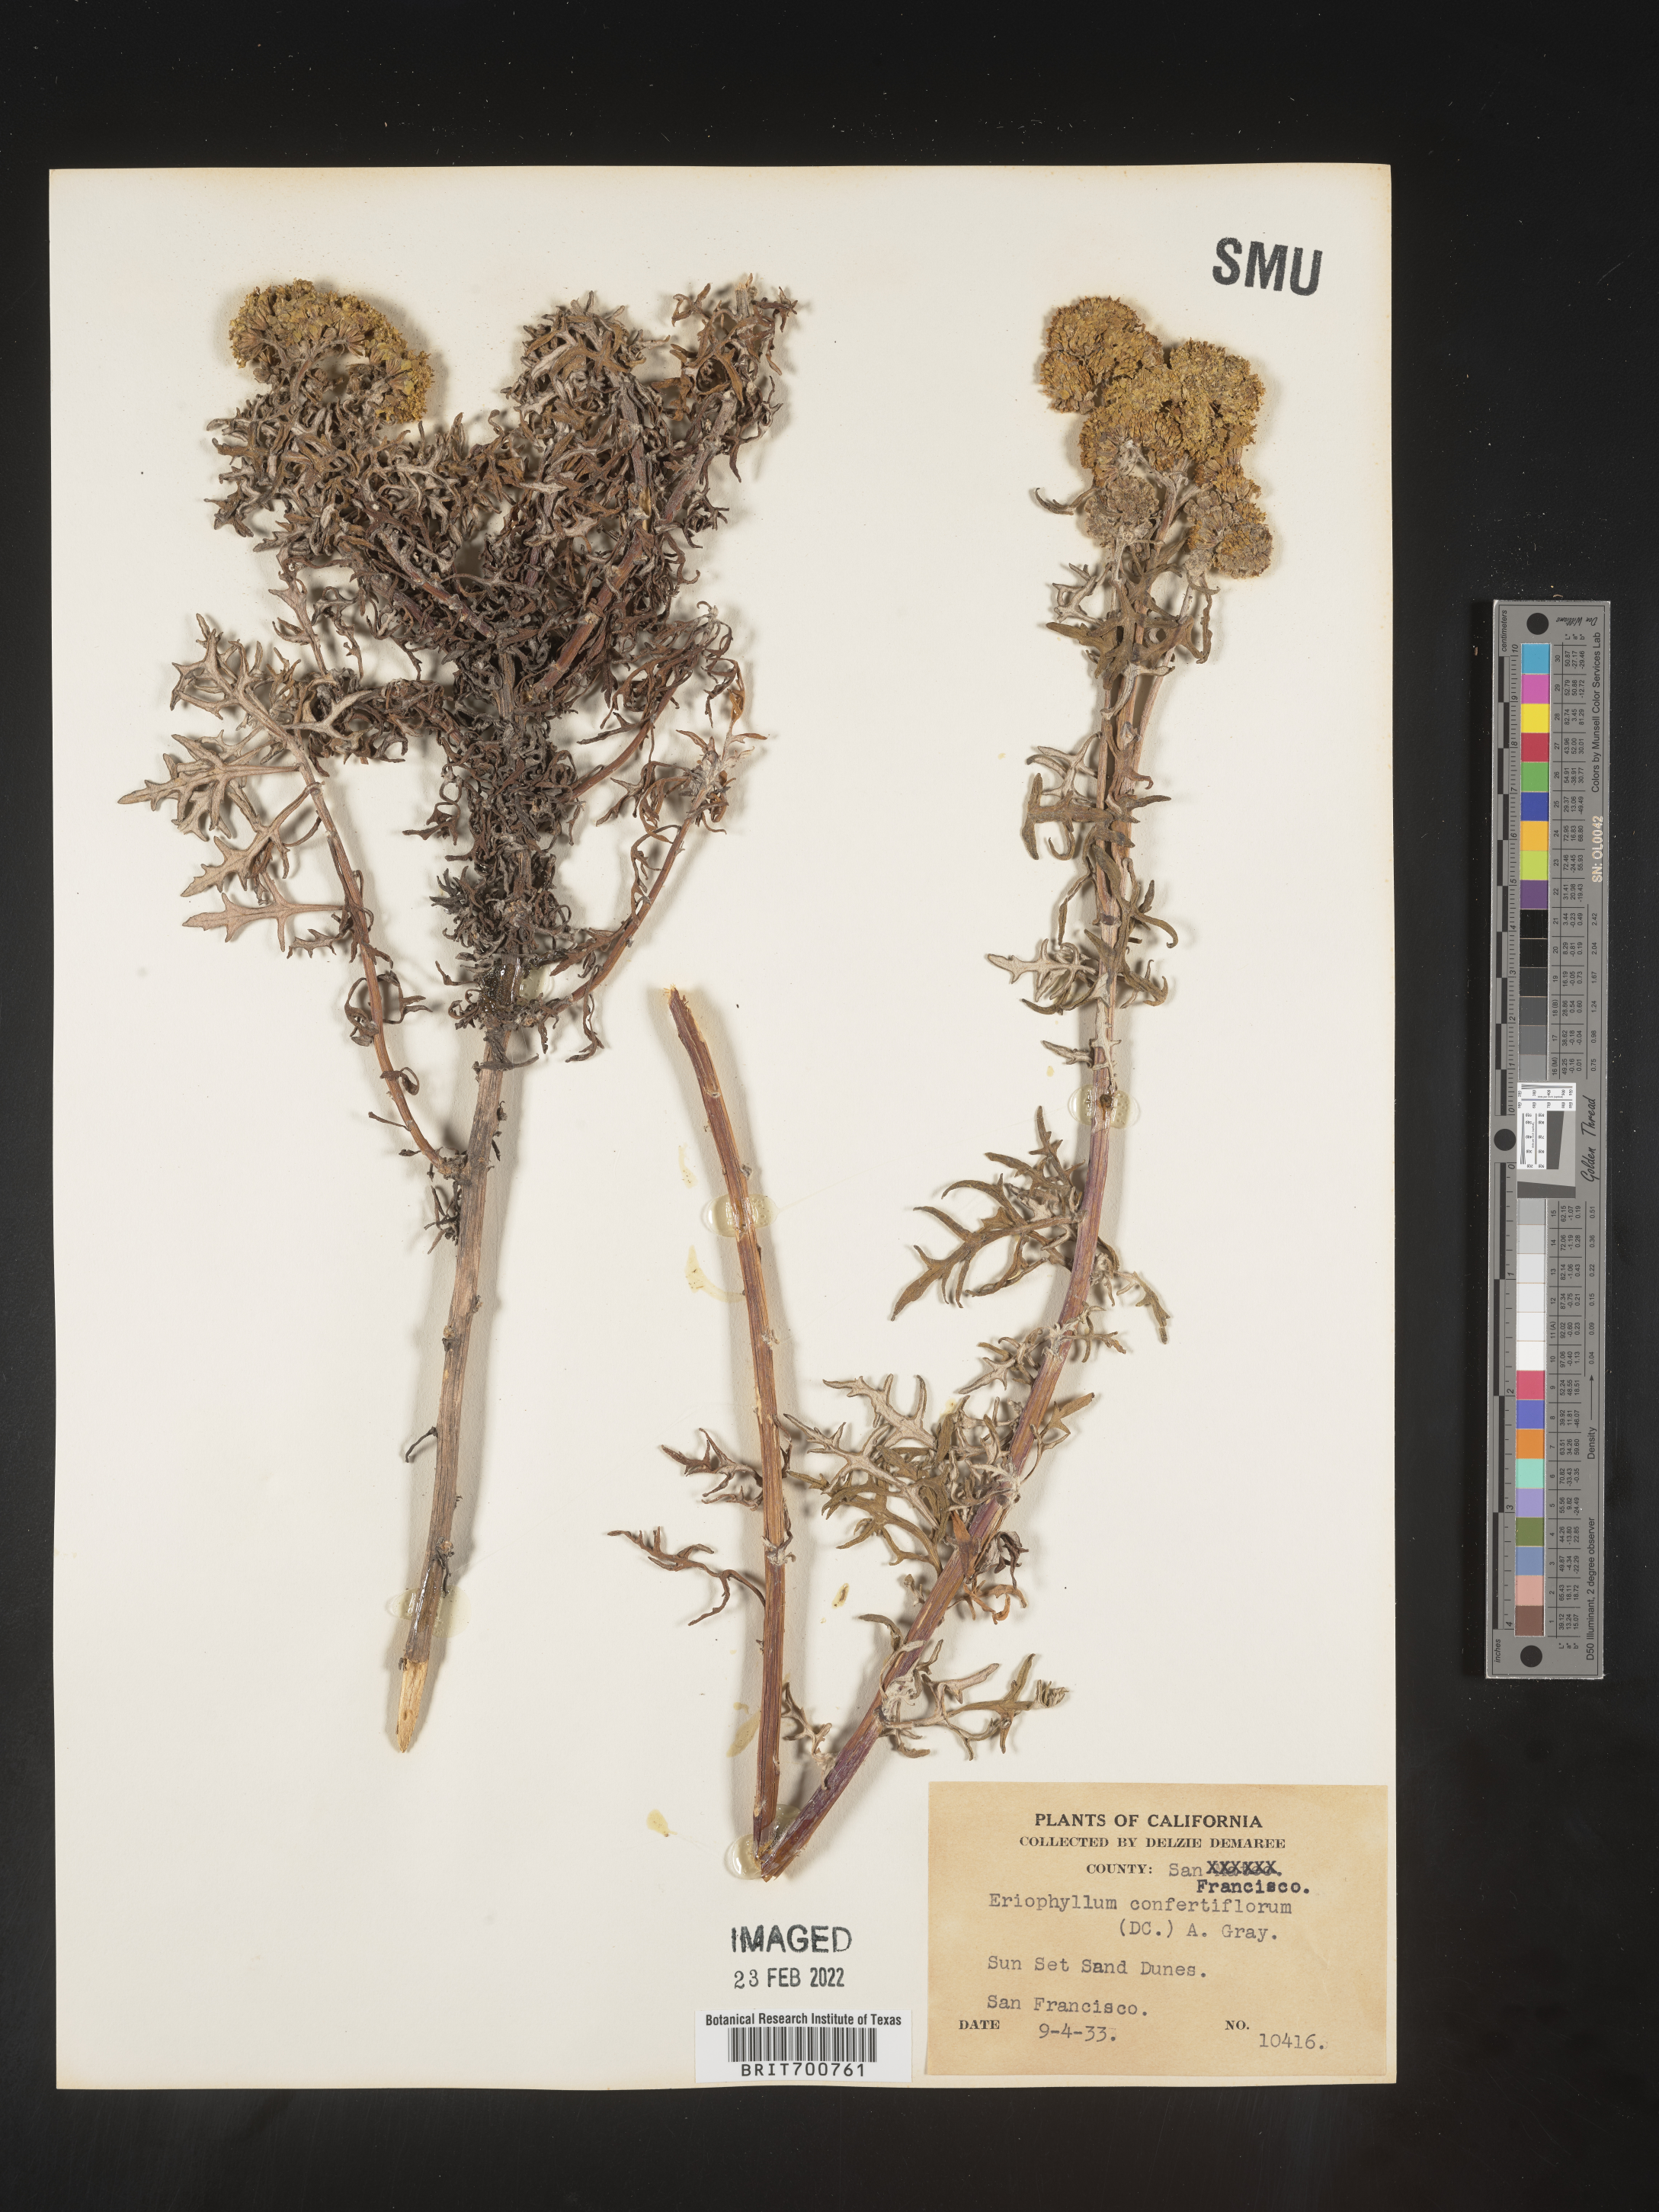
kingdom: Plantae
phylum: Tracheophyta
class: Magnoliopsida
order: Asterales
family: Asteraceae
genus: Eriophyllum
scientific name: Eriophyllum confertiflorum
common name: Golden-yarrow
